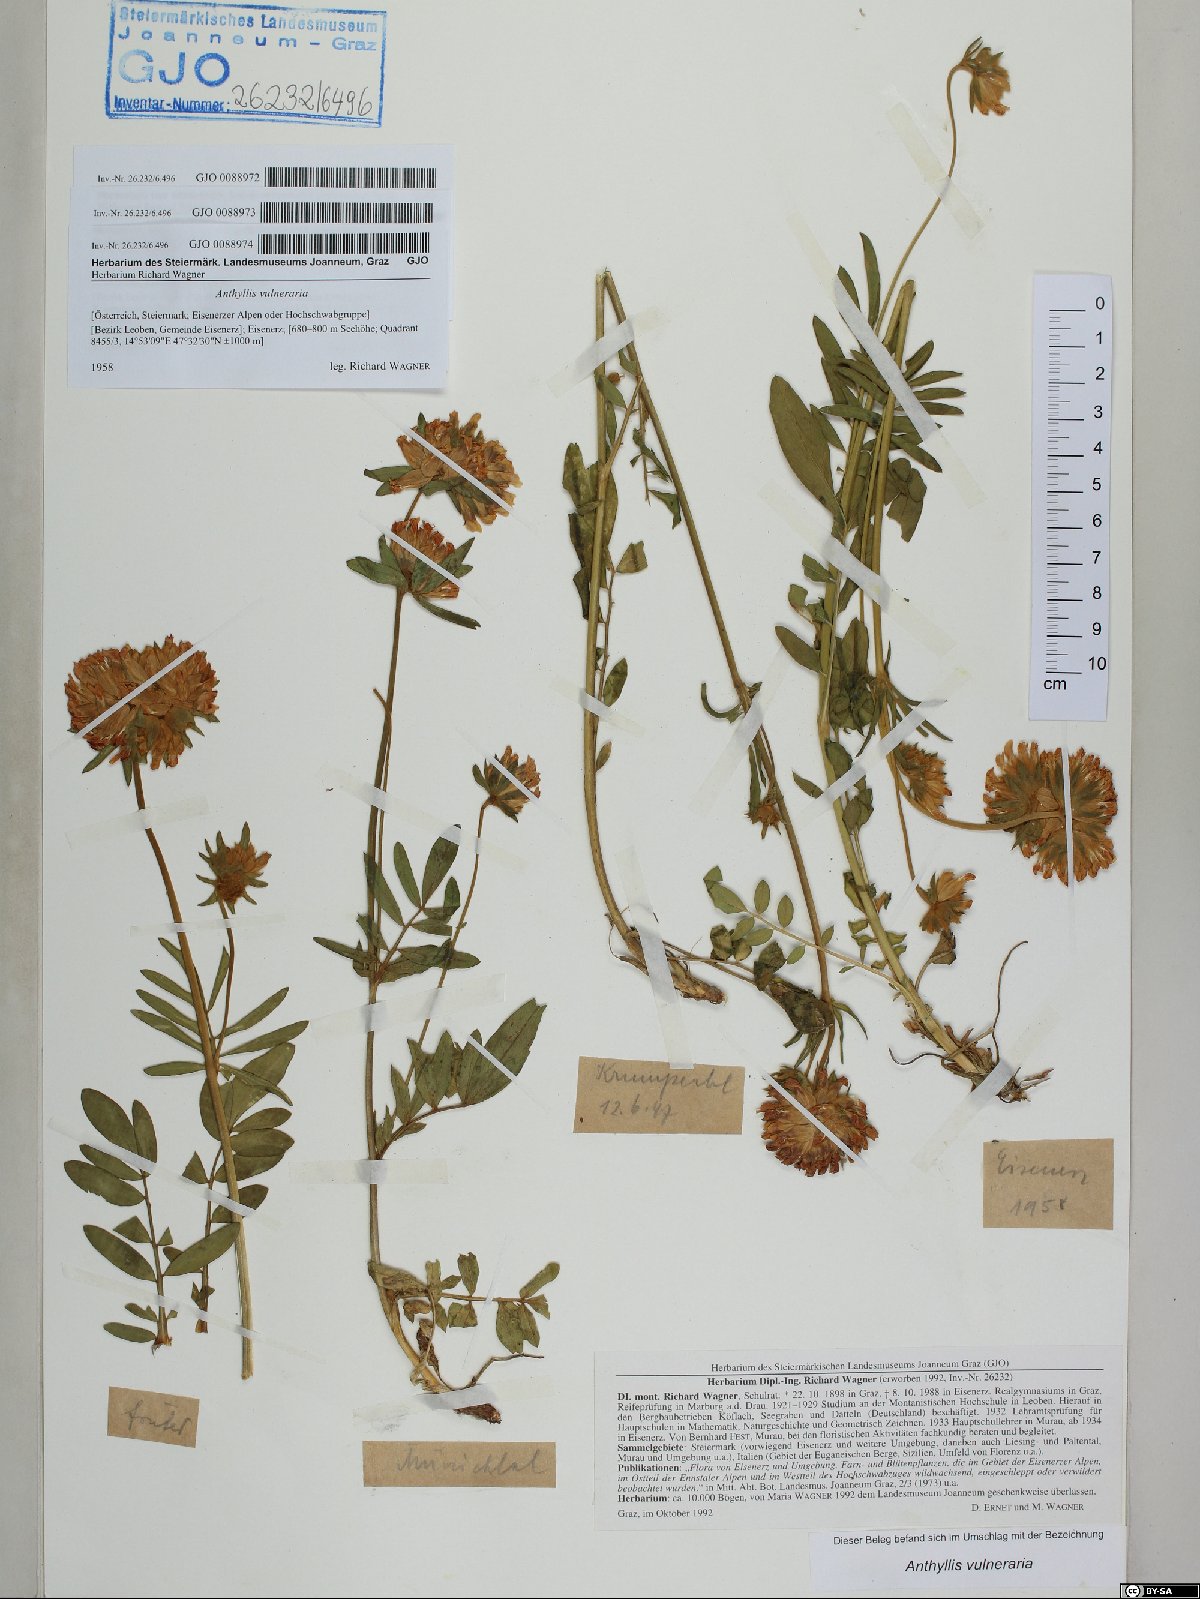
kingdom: Plantae
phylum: Tracheophyta
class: Magnoliopsida
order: Fabales
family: Fabaceae
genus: Anthyllis
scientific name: Anthyllis vulneraria
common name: Kidney vetch
